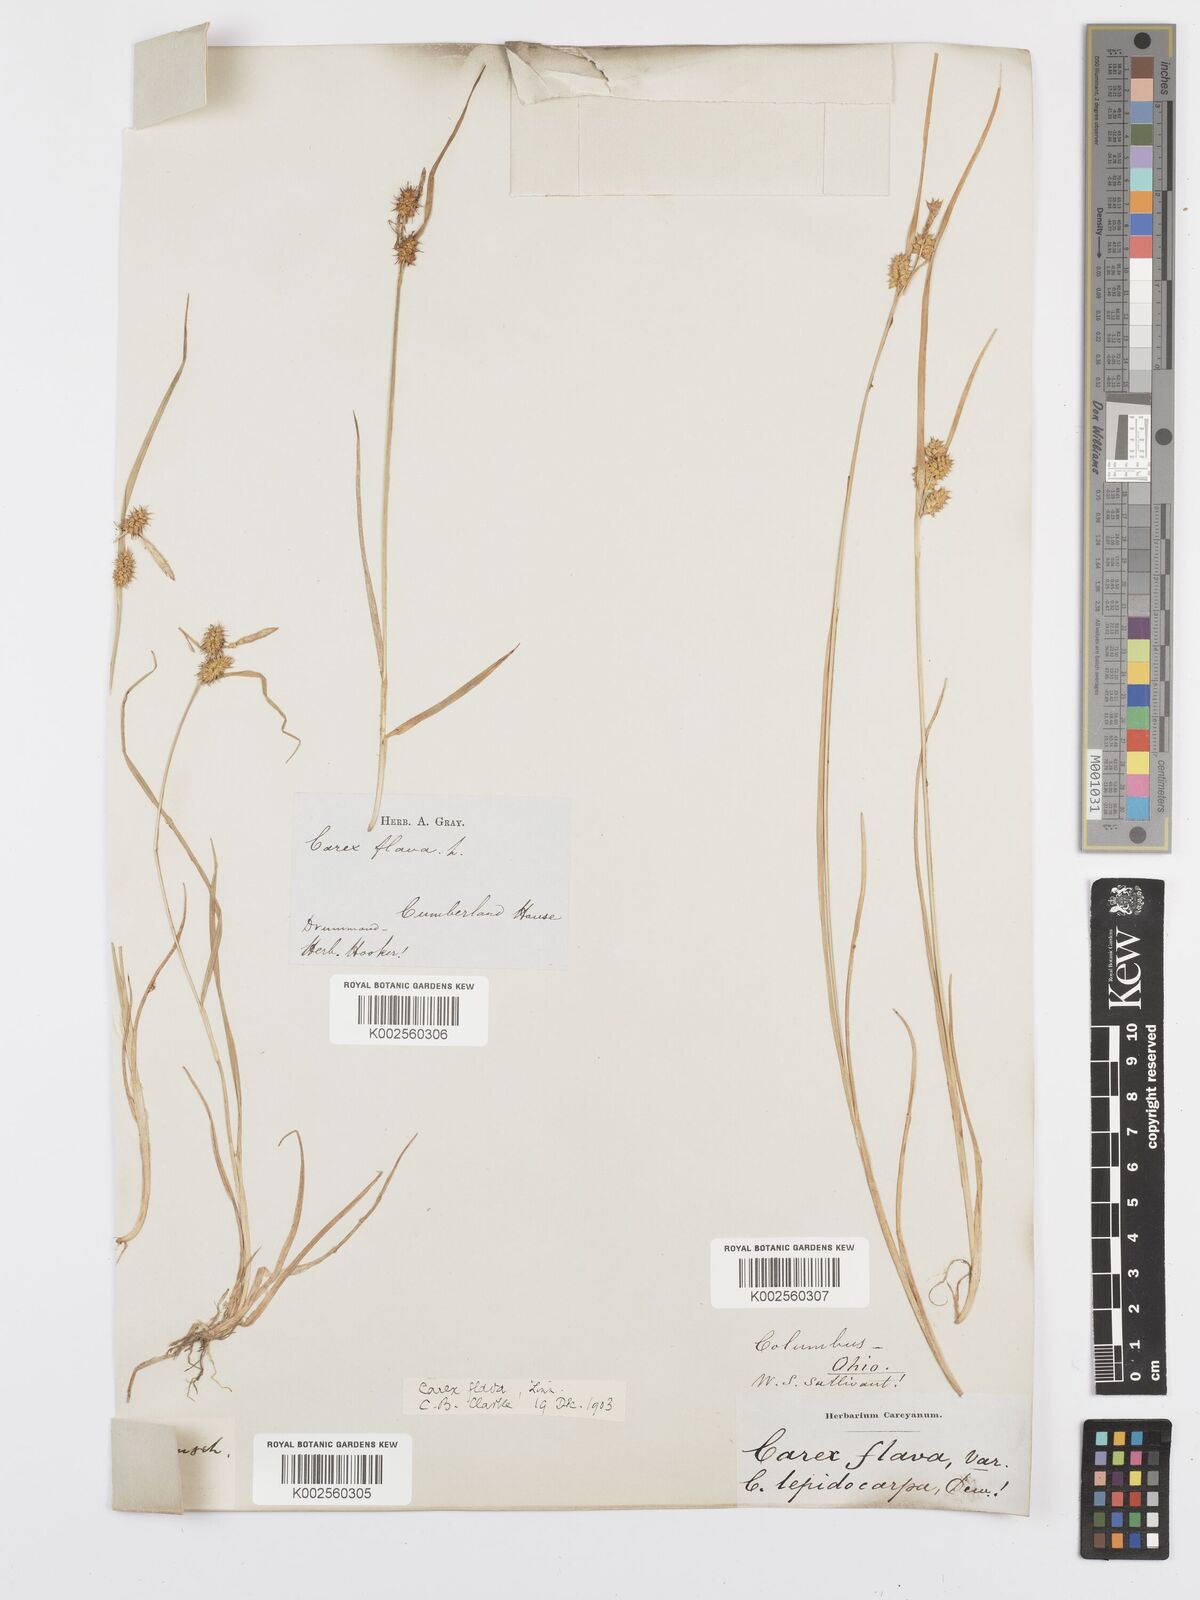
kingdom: Plantae
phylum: Tracheophyta
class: Liliopsida
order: Poales
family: Cyperaceae
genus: Carex
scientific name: Carex flava
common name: Large yellow-sedge
